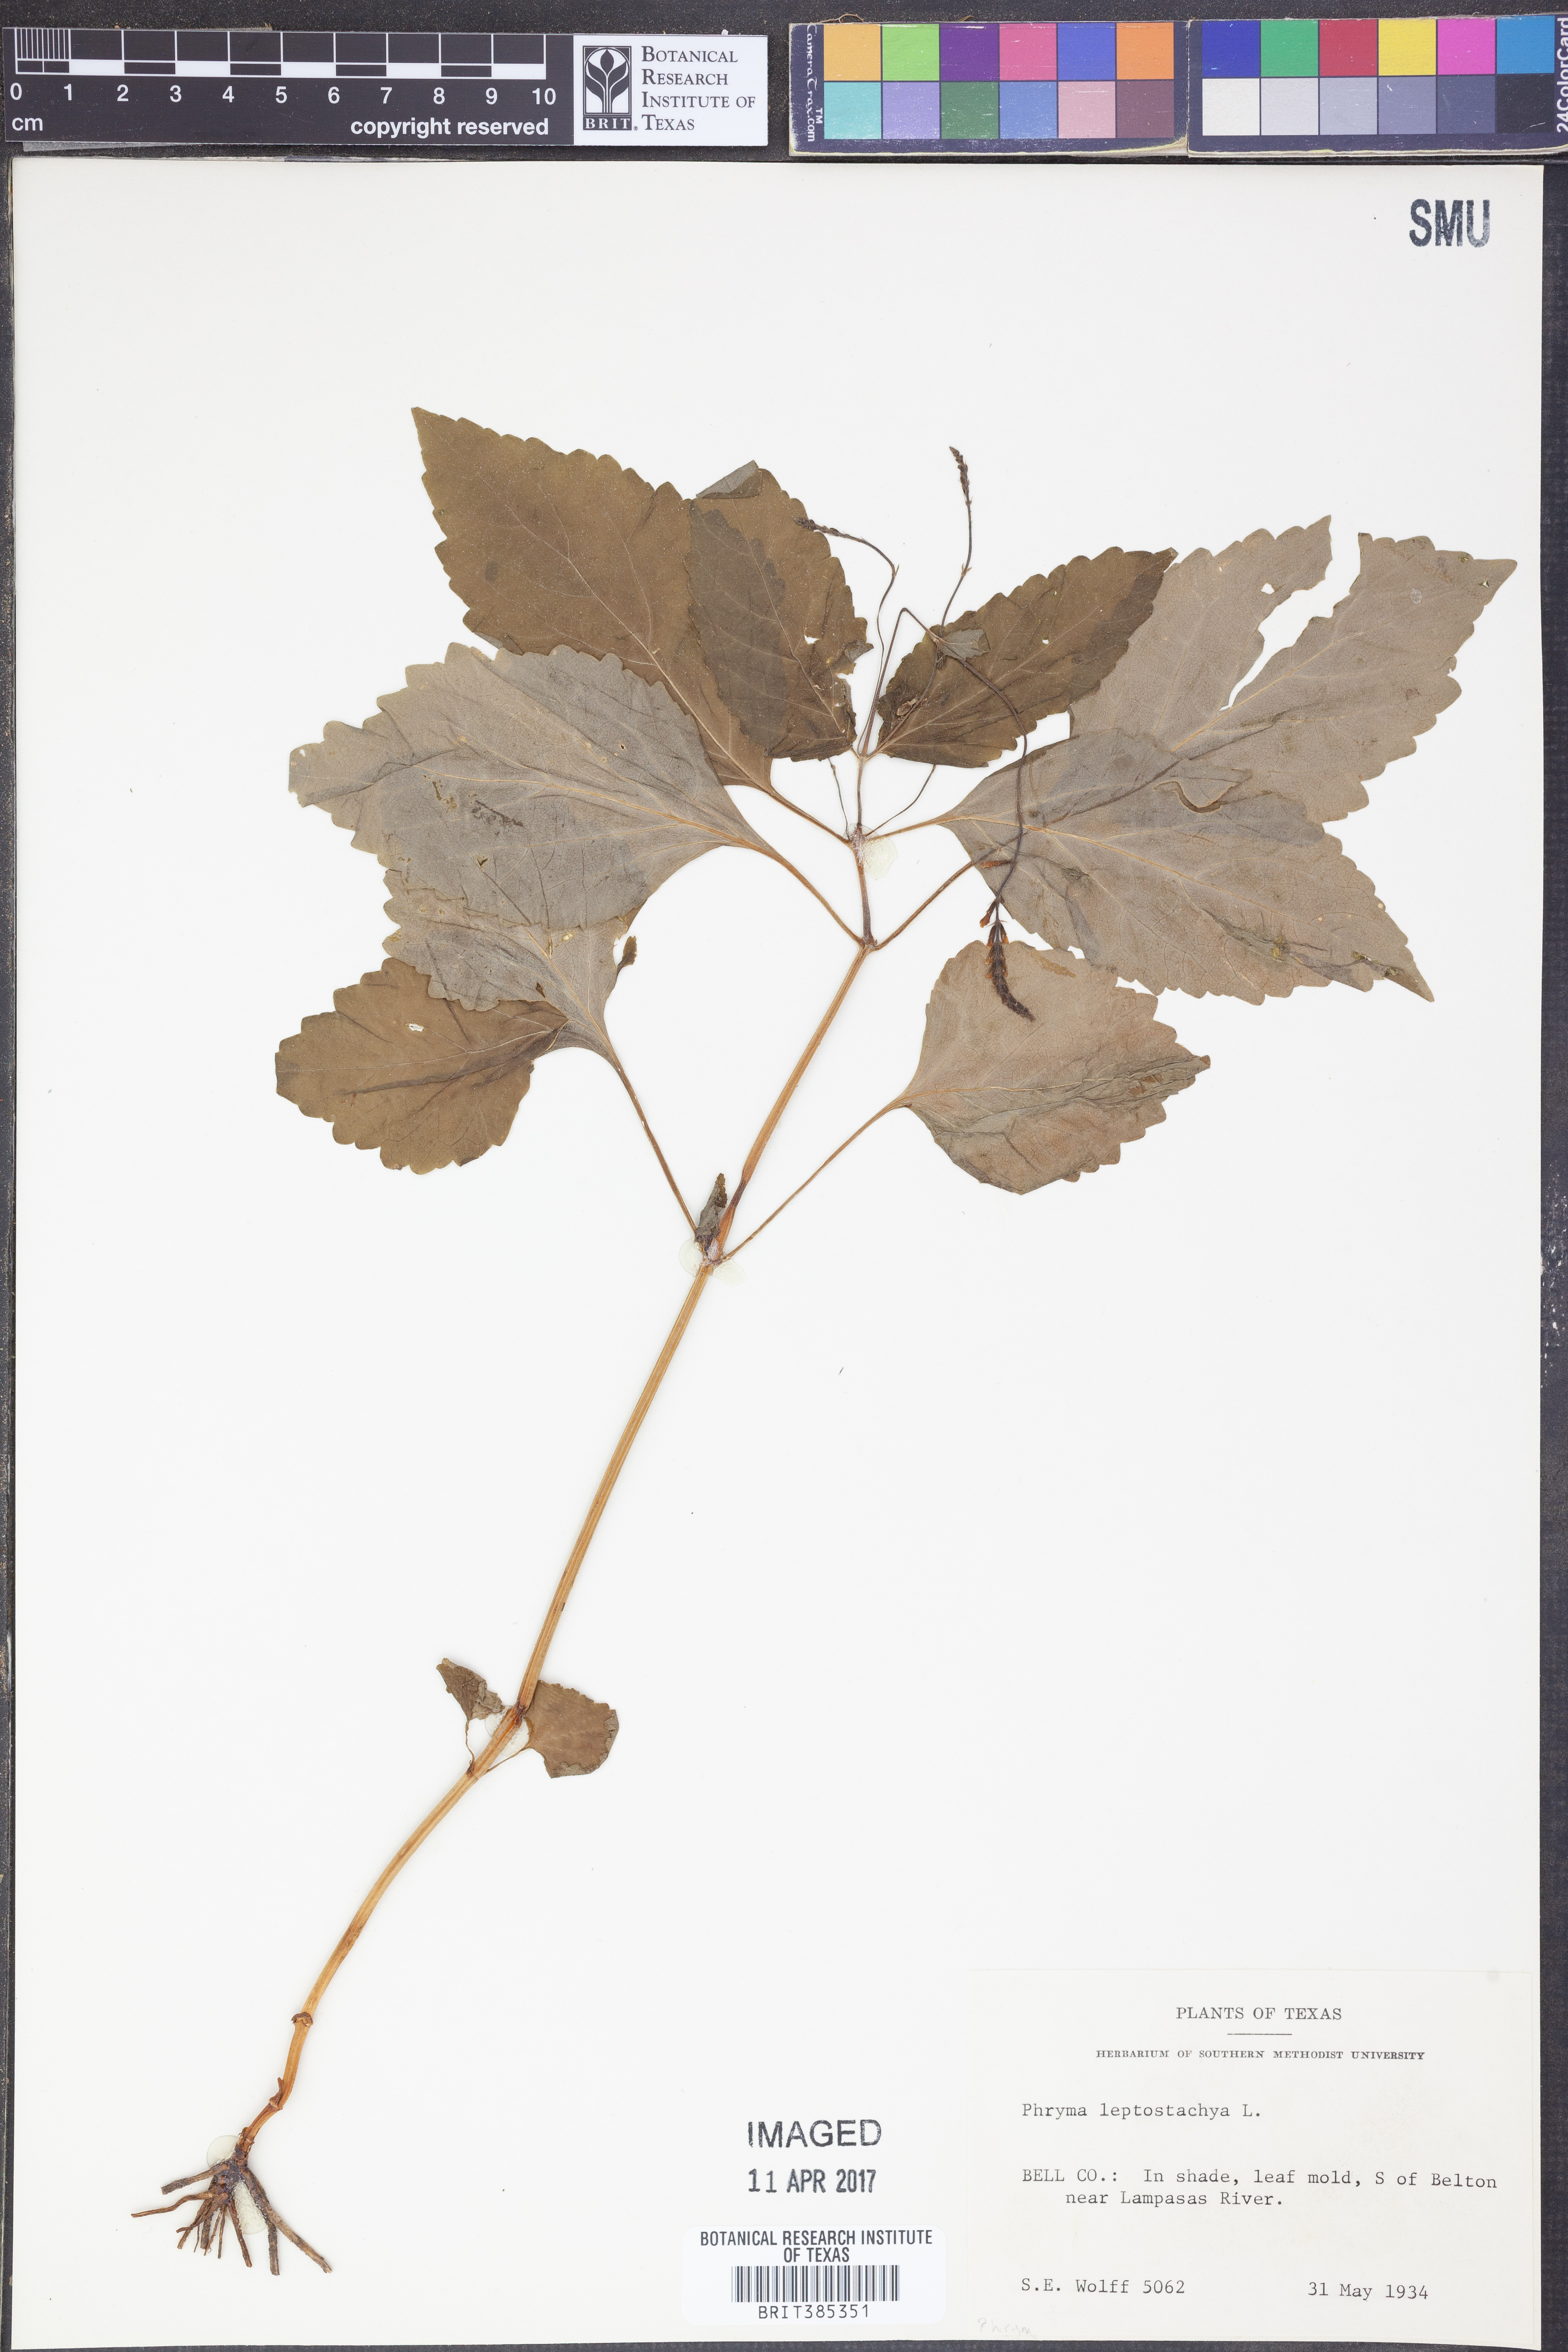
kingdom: Plantae
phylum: Tracheophyta
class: Magnoliopsida
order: Lamiales
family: Phrymaceae
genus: Phryma
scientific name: Phryma leptostachya
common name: American lopseed
